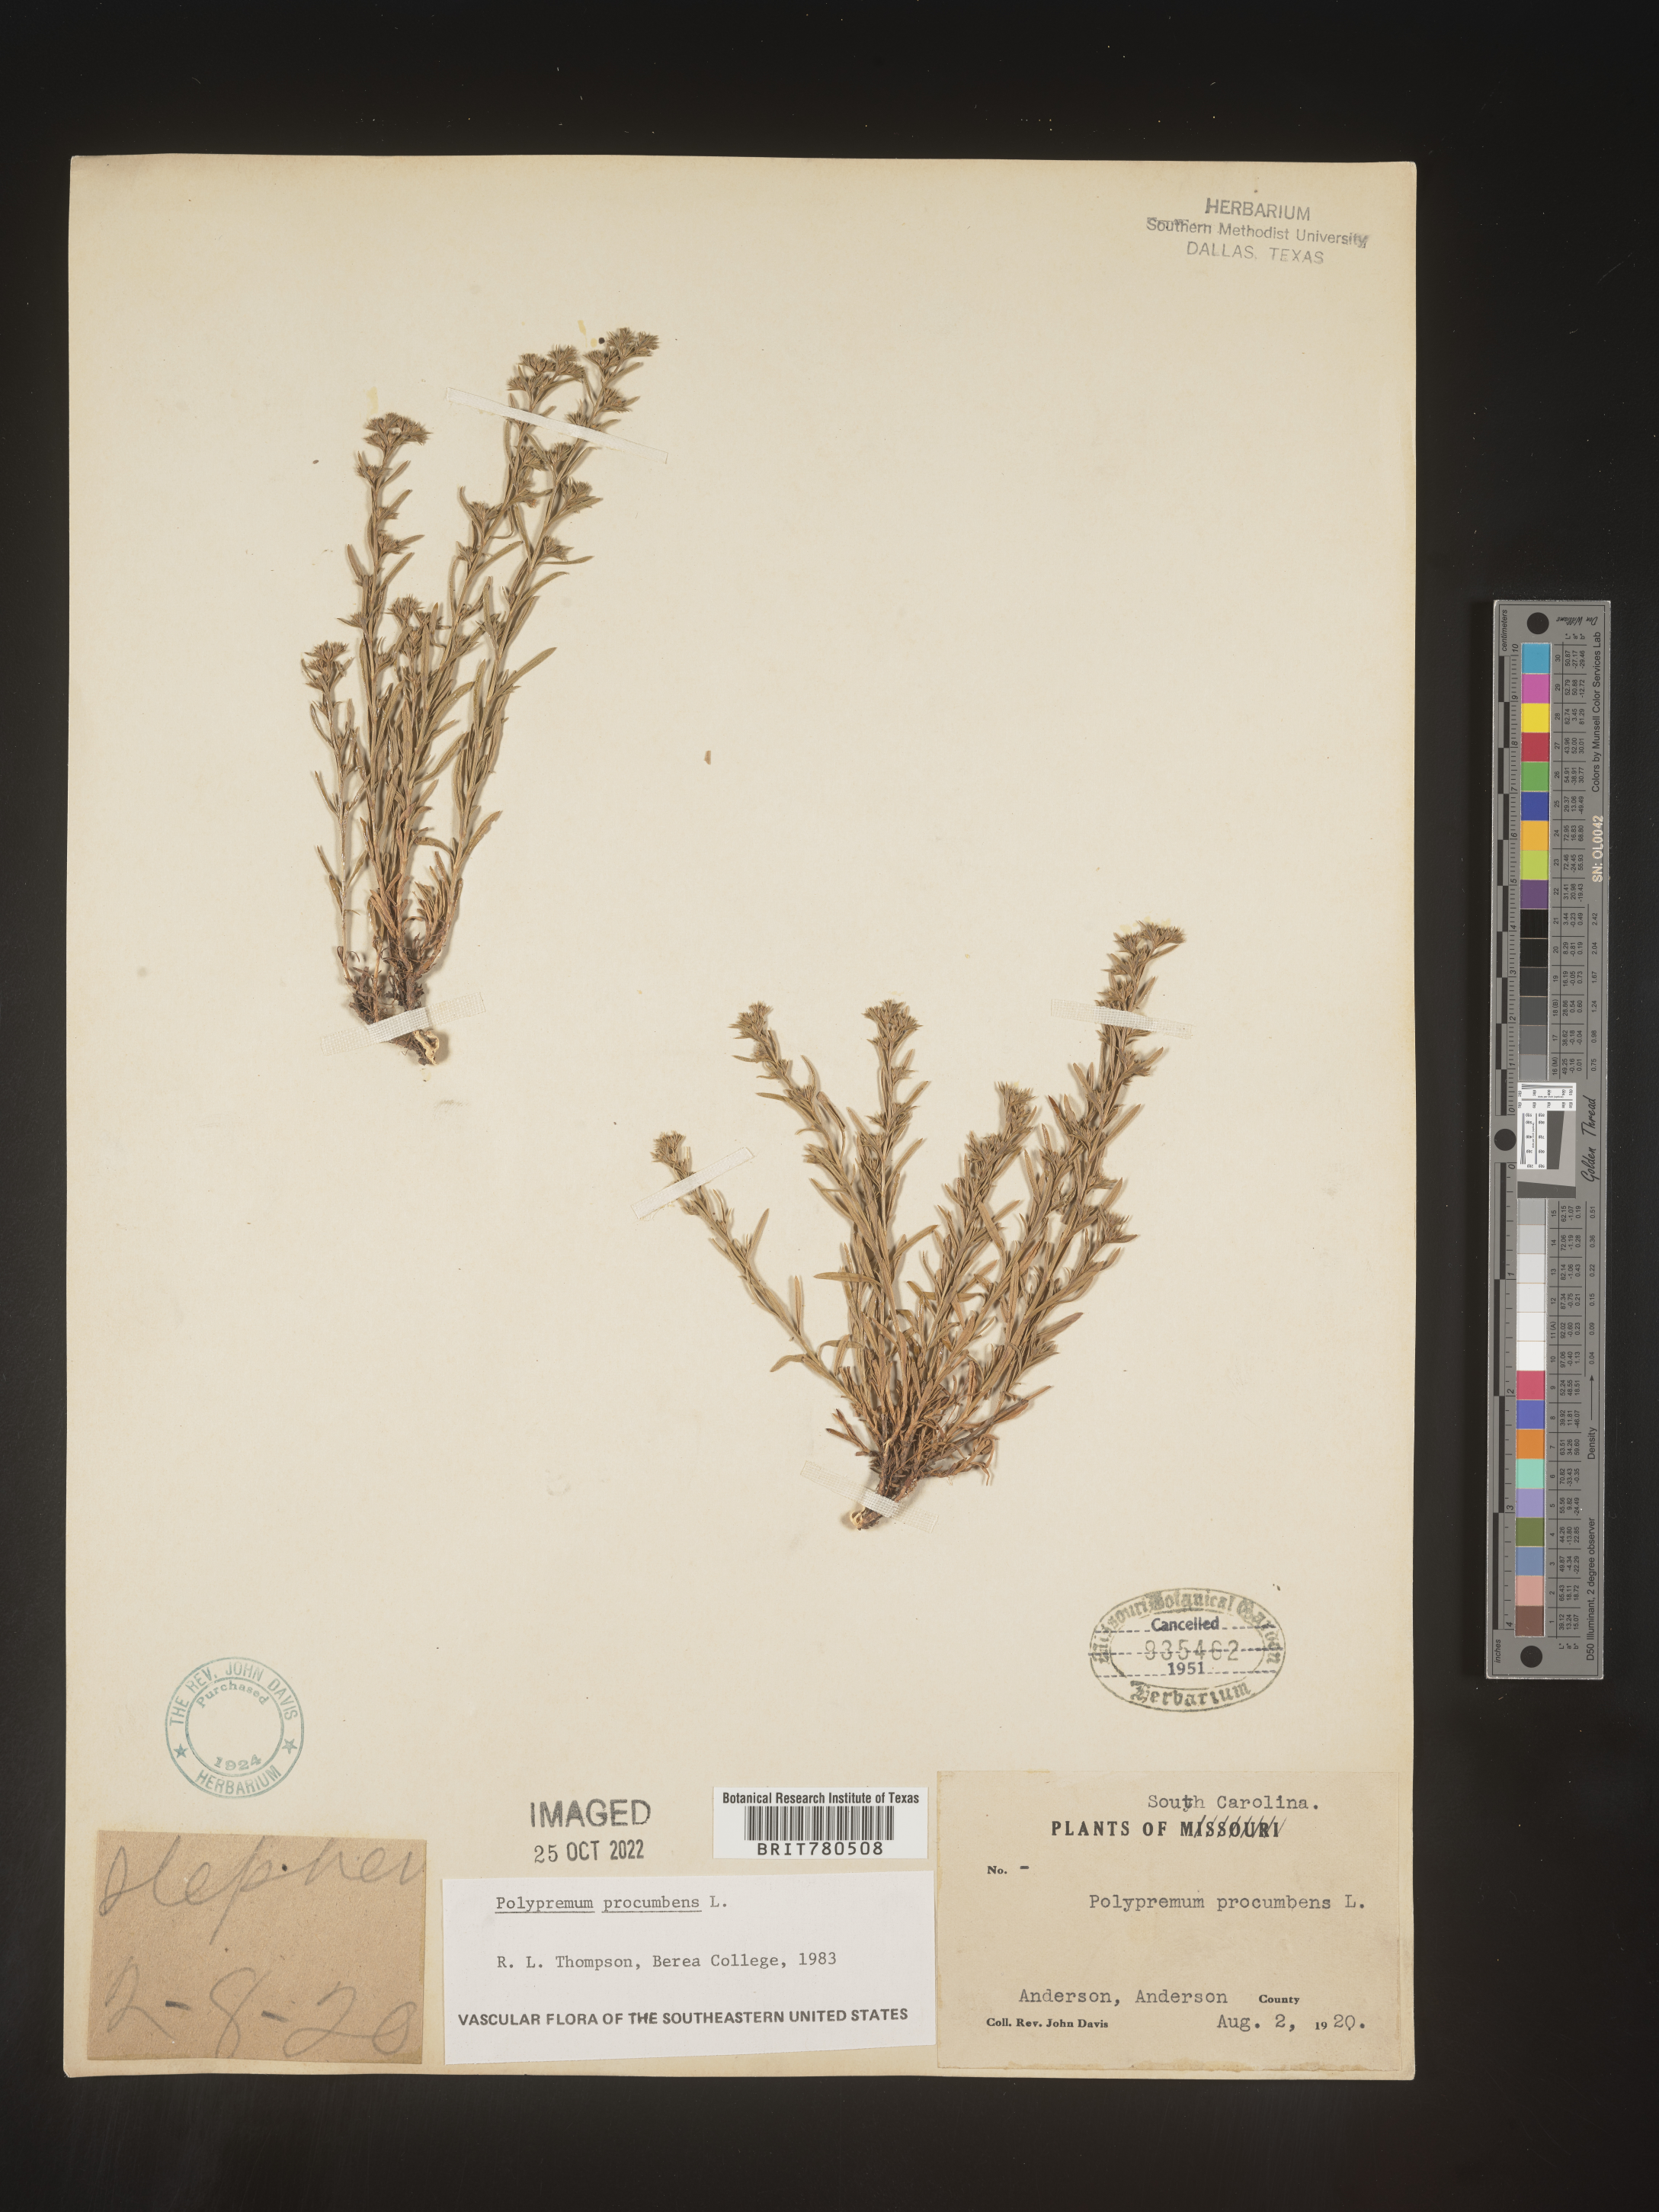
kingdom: Plantae
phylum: Tracheophyta
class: Magnoliopsida
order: Lamiales
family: Tetrachondraceae
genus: Polypremum
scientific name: Polypremum procumbens
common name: Juniper-leaf
